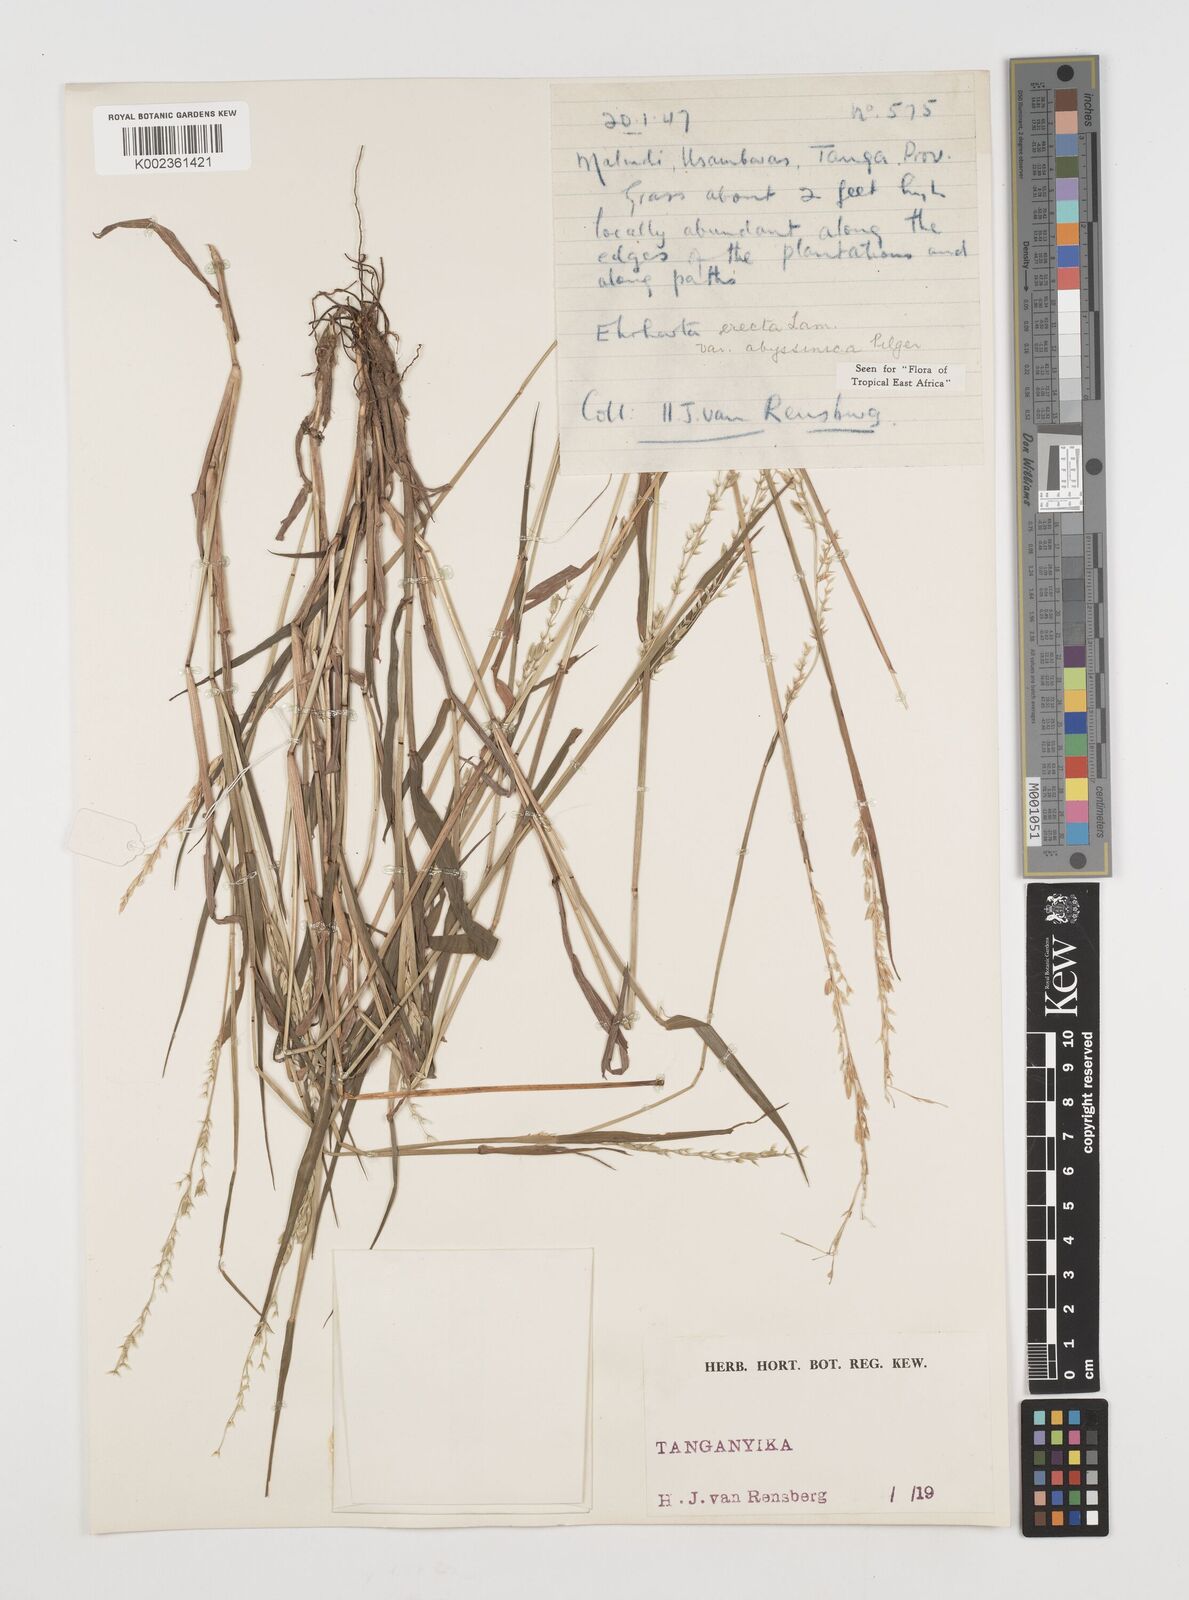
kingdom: Plantae
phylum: Tracheophyta
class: Liliopsida
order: Poales
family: Poaceae
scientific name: Poaceae
